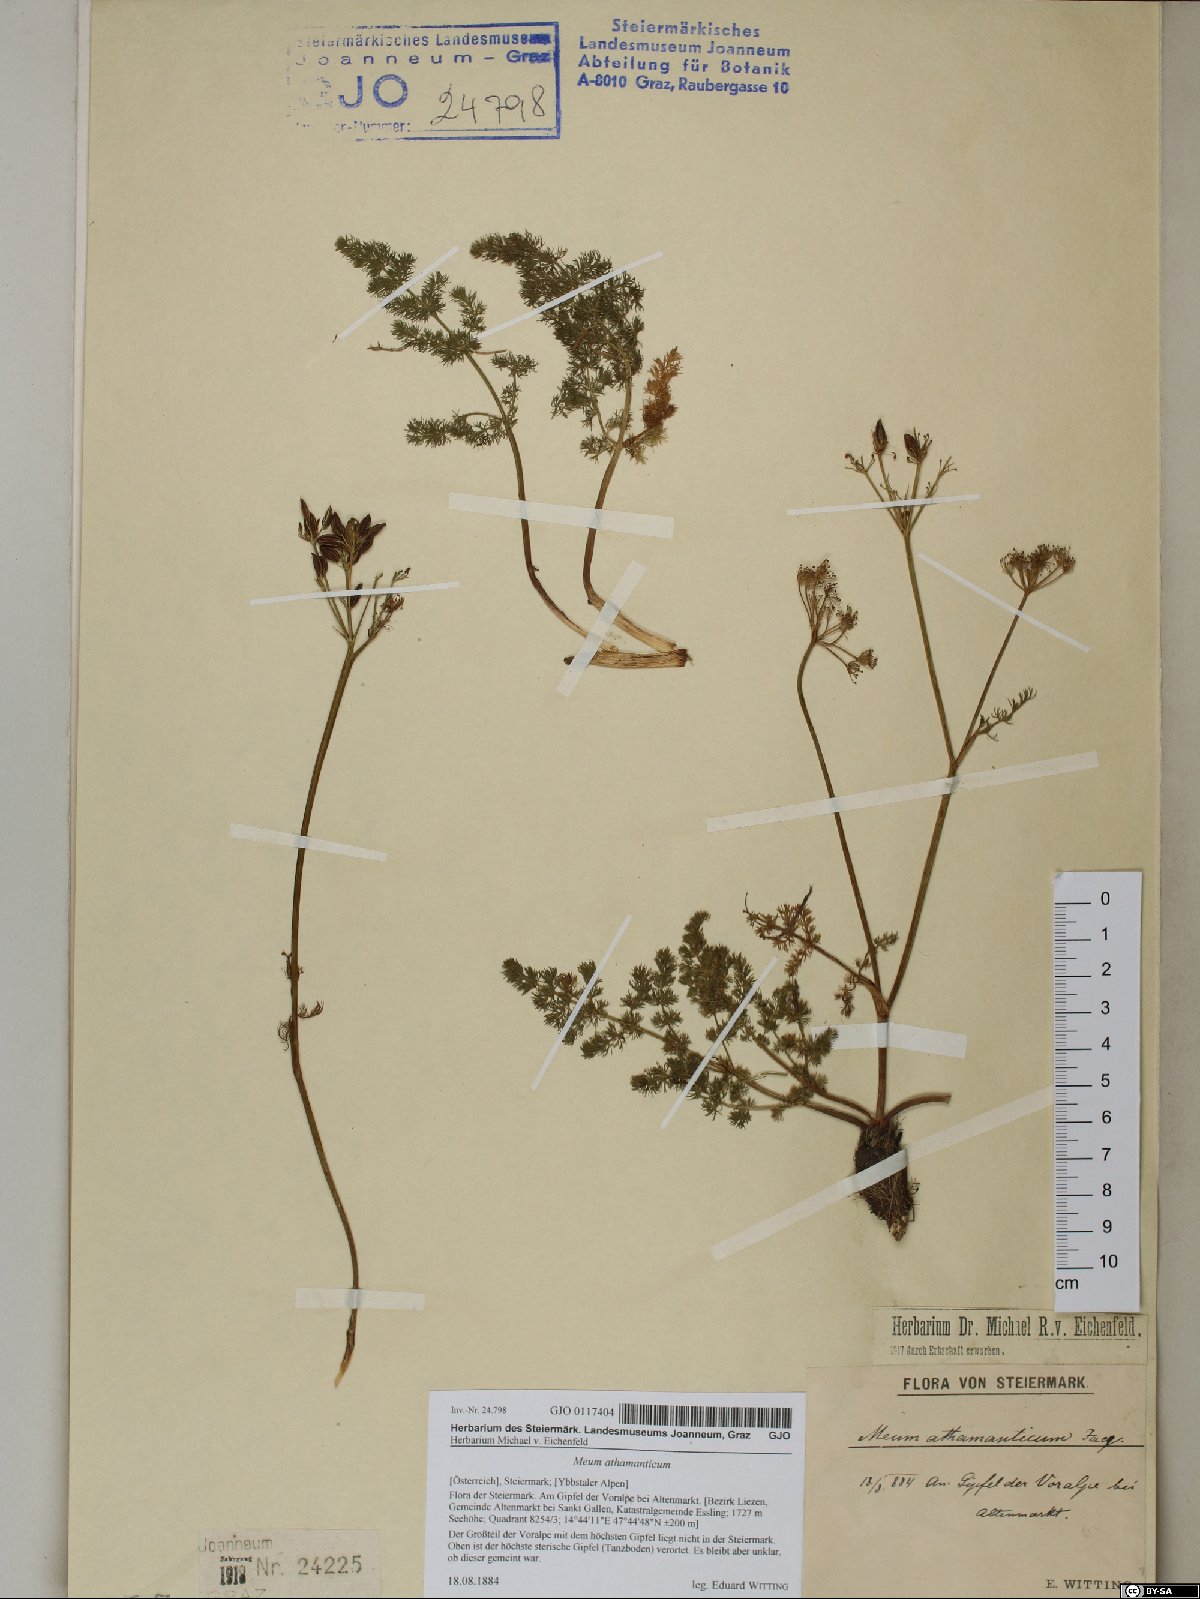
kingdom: Plantae
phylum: Tracheophyta
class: Magnoliopsida
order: Apiales
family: Apiaceae
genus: Meum
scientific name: Meum athamanticum
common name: Spignel
